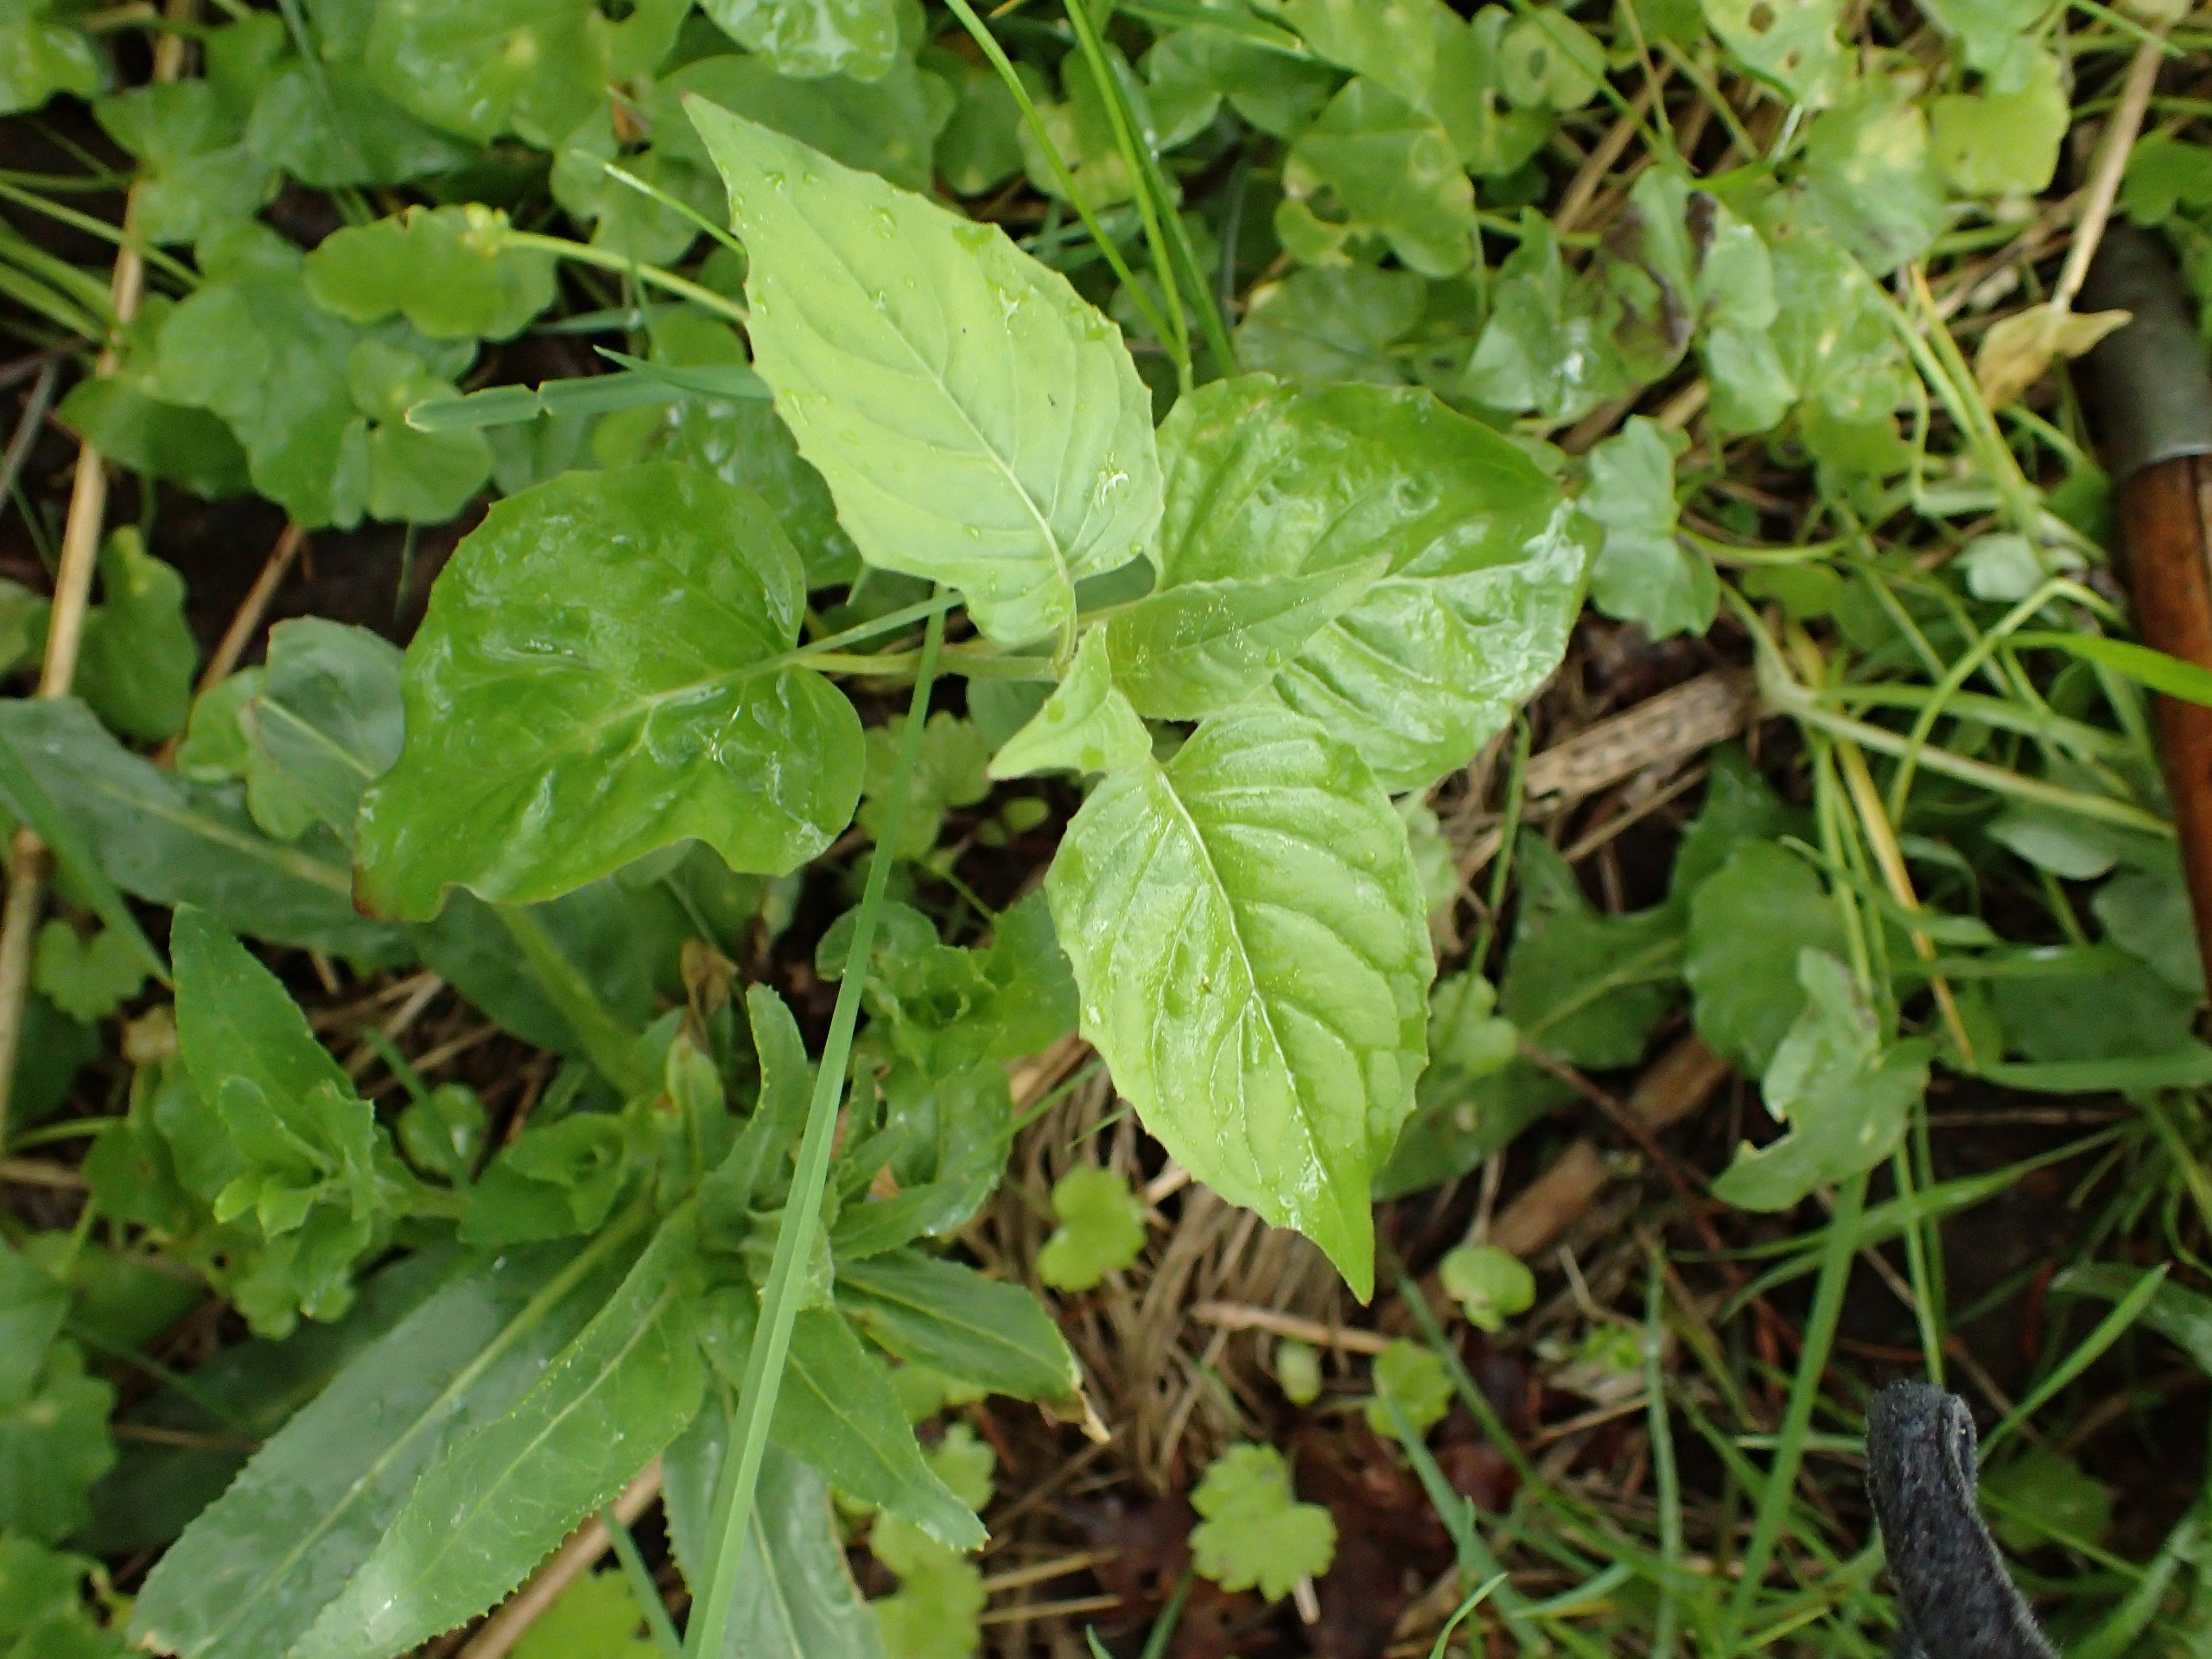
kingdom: Plantae
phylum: Tracheophyta
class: Magnoliopsida
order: Myrtales
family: Onagraceae
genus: Circaea
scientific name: Circaea lutetiana
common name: Dunet steffensurt
